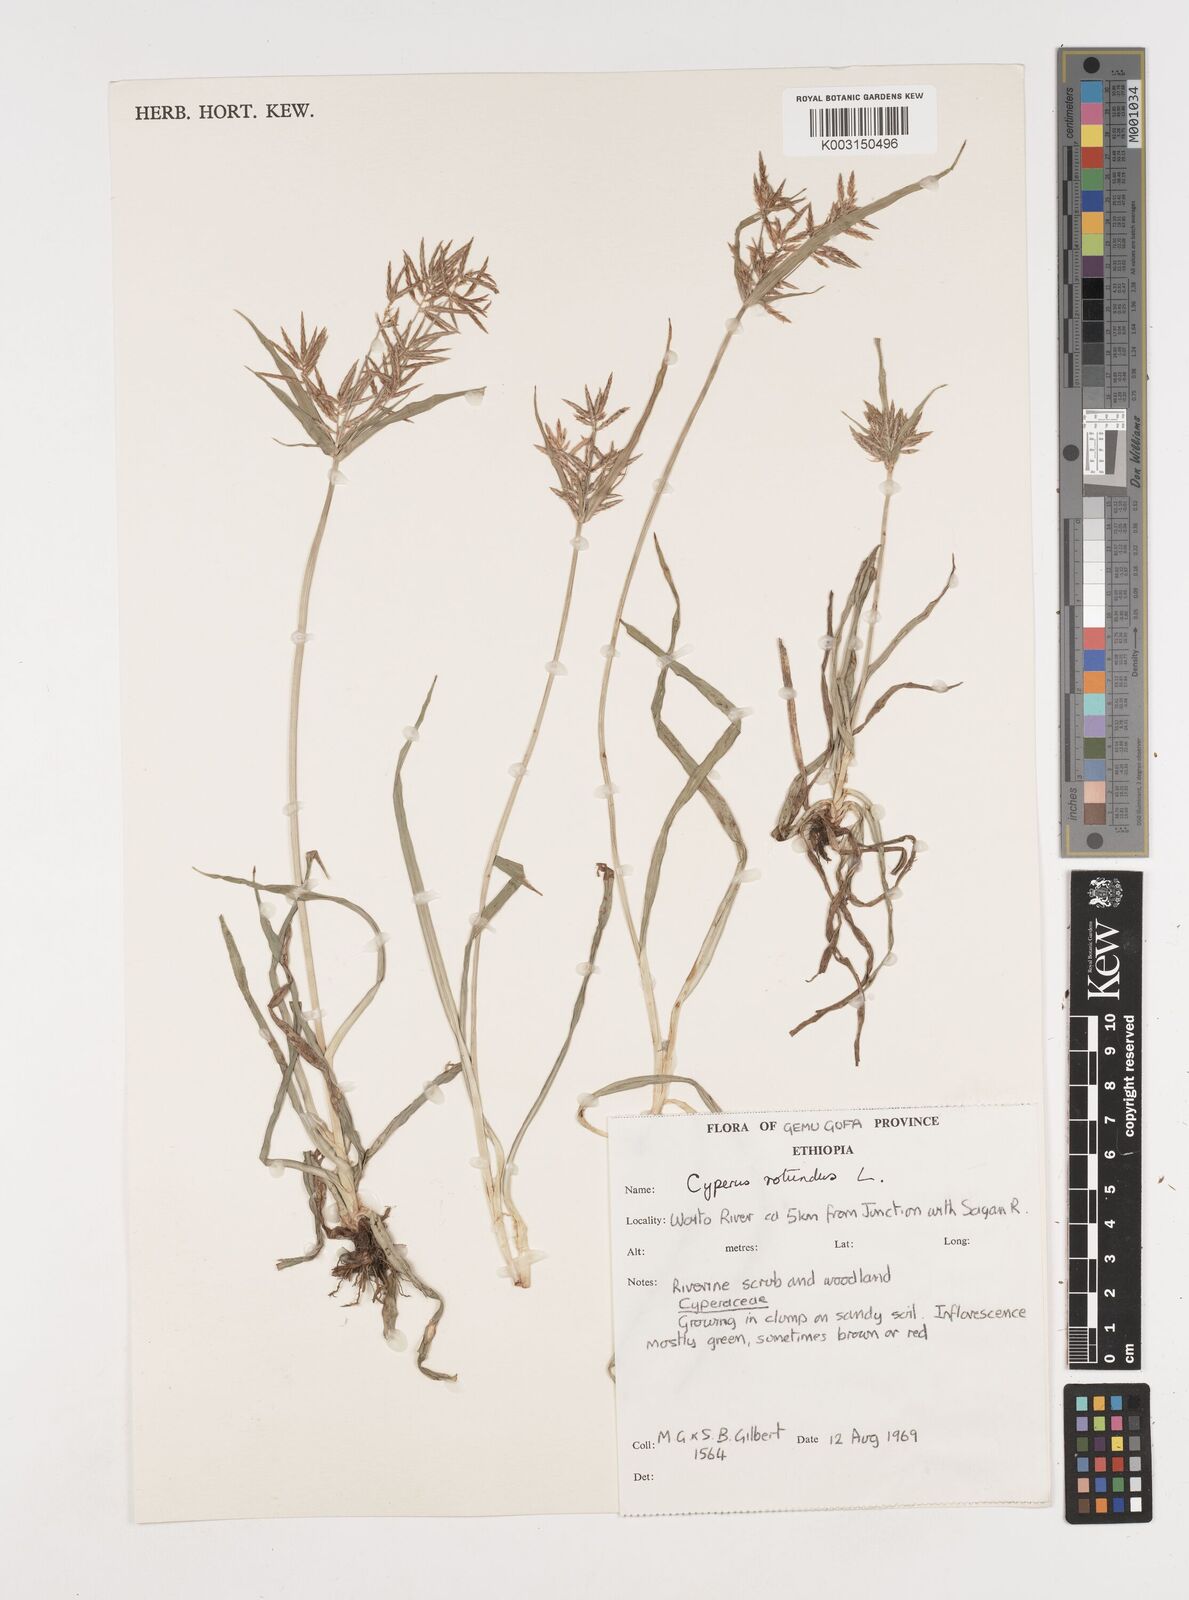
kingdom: Plantae
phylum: Tracheophyta
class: Liliopsida
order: Poales
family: Cyperaceae
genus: Cyperus
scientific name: Cyperus rotundus
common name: Nutgrass
